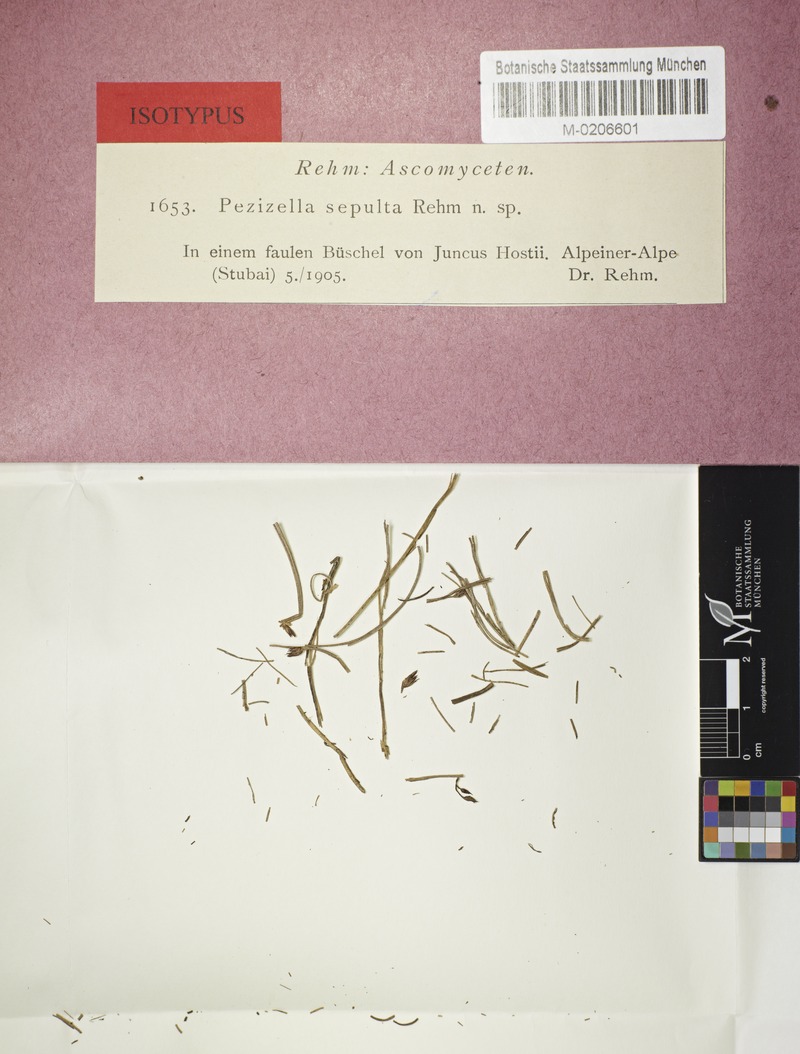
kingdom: Fungi
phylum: Ascomycota
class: Leotiomycetes
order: Helotiales
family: Lachnaceae
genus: Dasypezis
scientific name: Dasypezis sepulta
